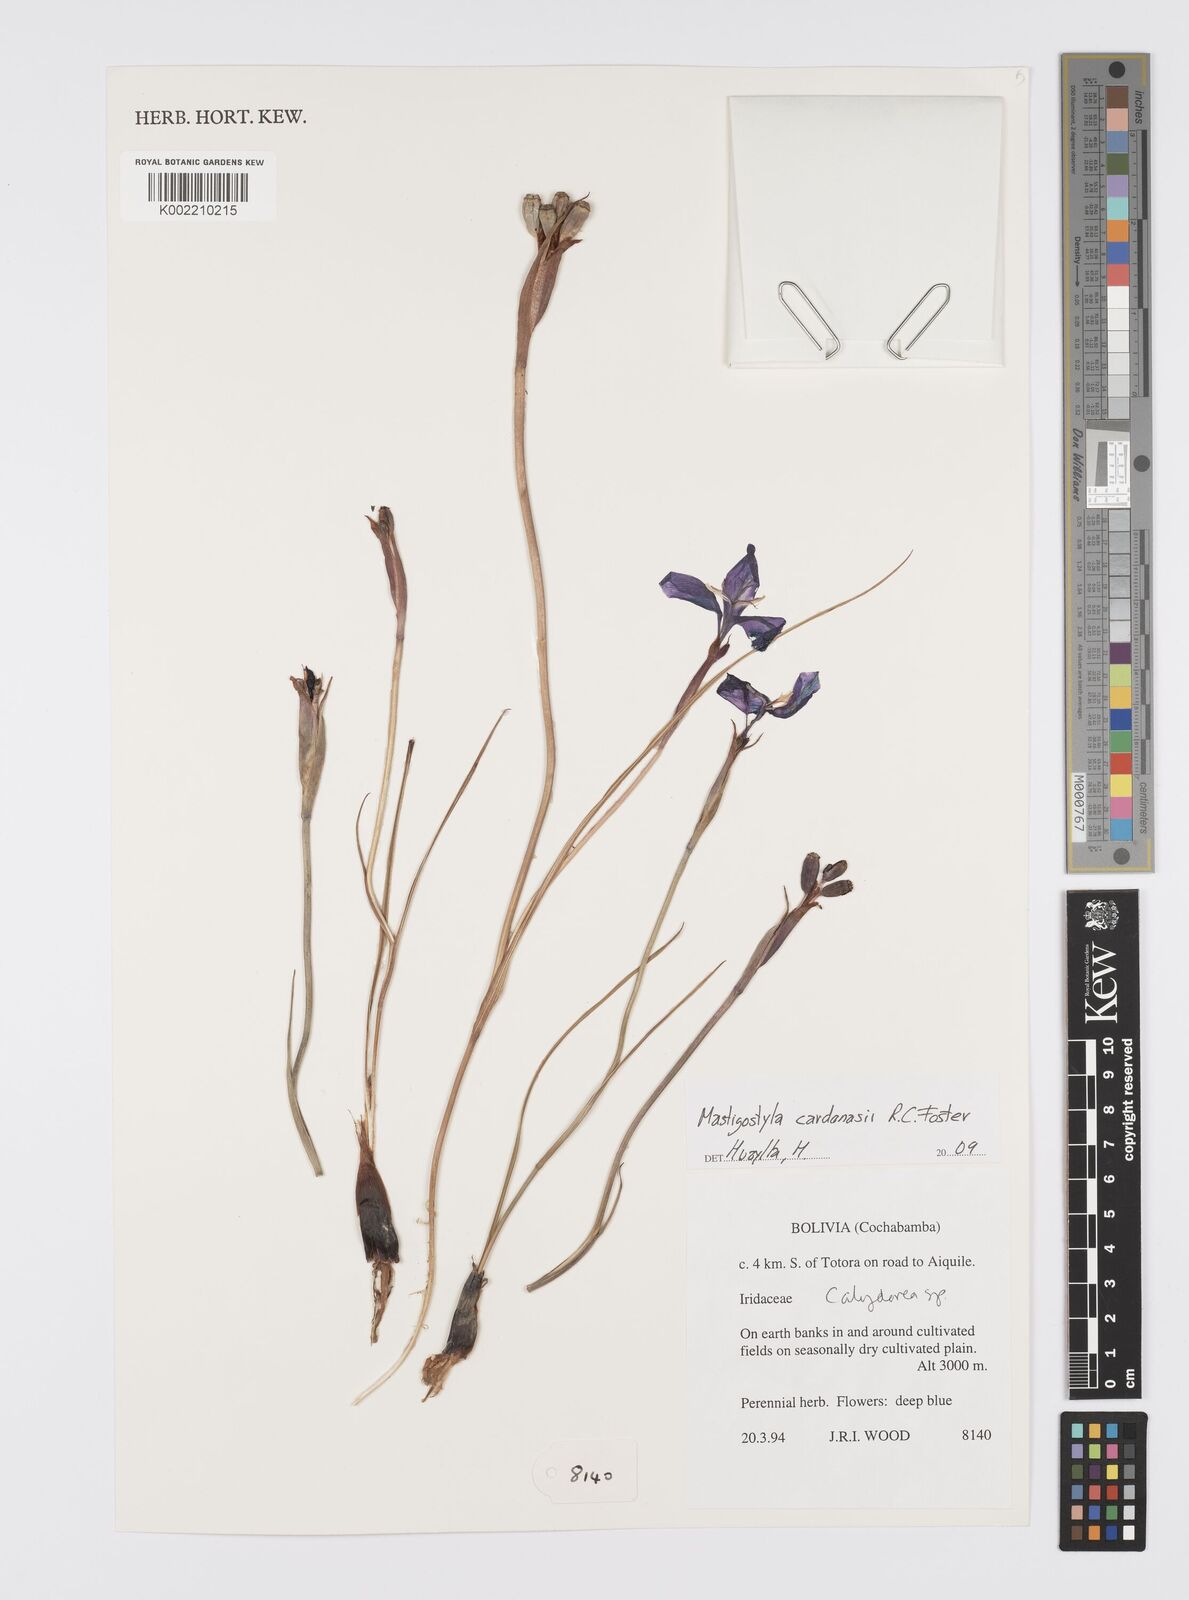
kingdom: Plantae
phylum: Tracheophyta
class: Liliopsida
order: Asparagales
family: Iridaceae
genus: Mastigostyla
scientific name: Mastigostyla cardenasii
